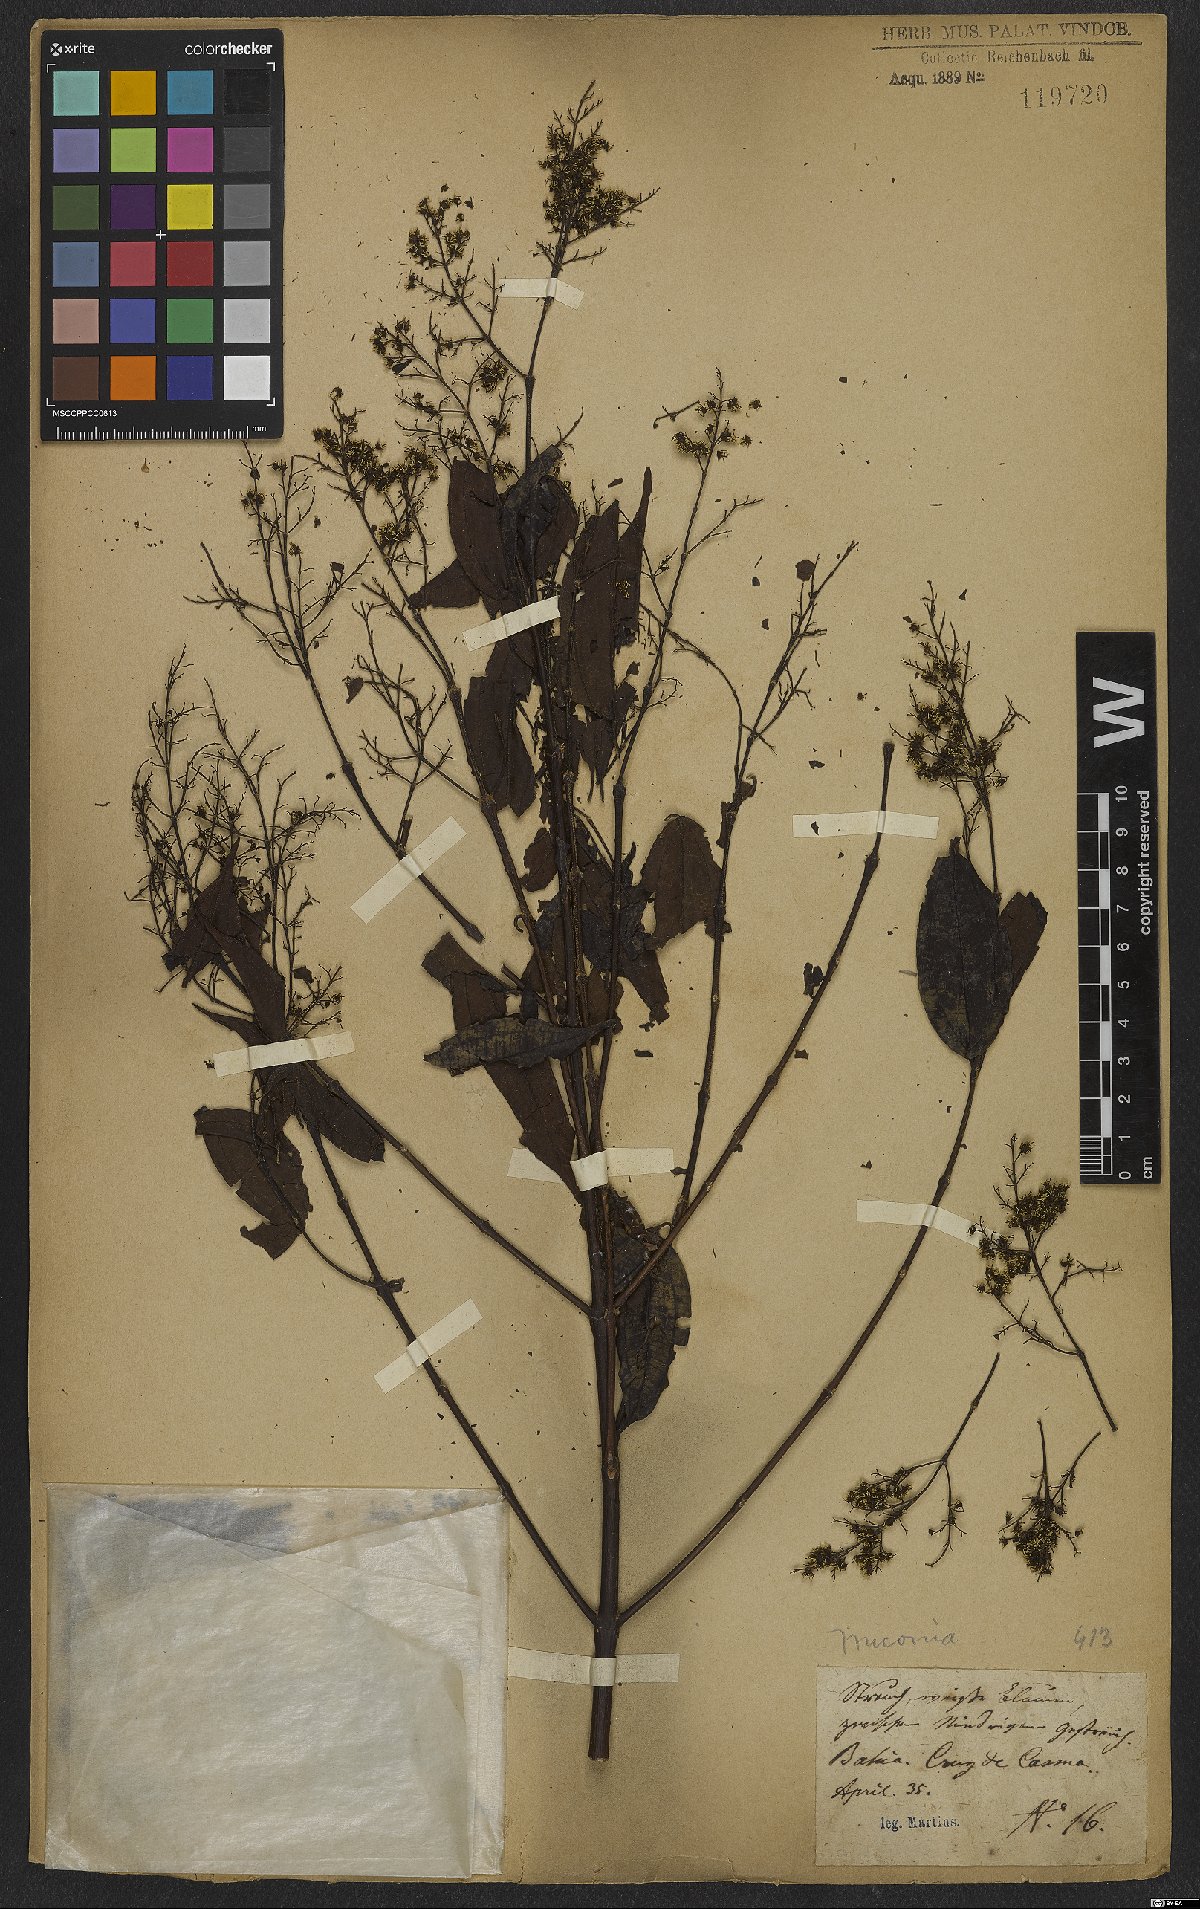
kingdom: Plantae
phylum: Tracheophyta
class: Magnoliopsida
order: Myrtales
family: Melastomataceae
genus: Miconia
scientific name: Miconia
